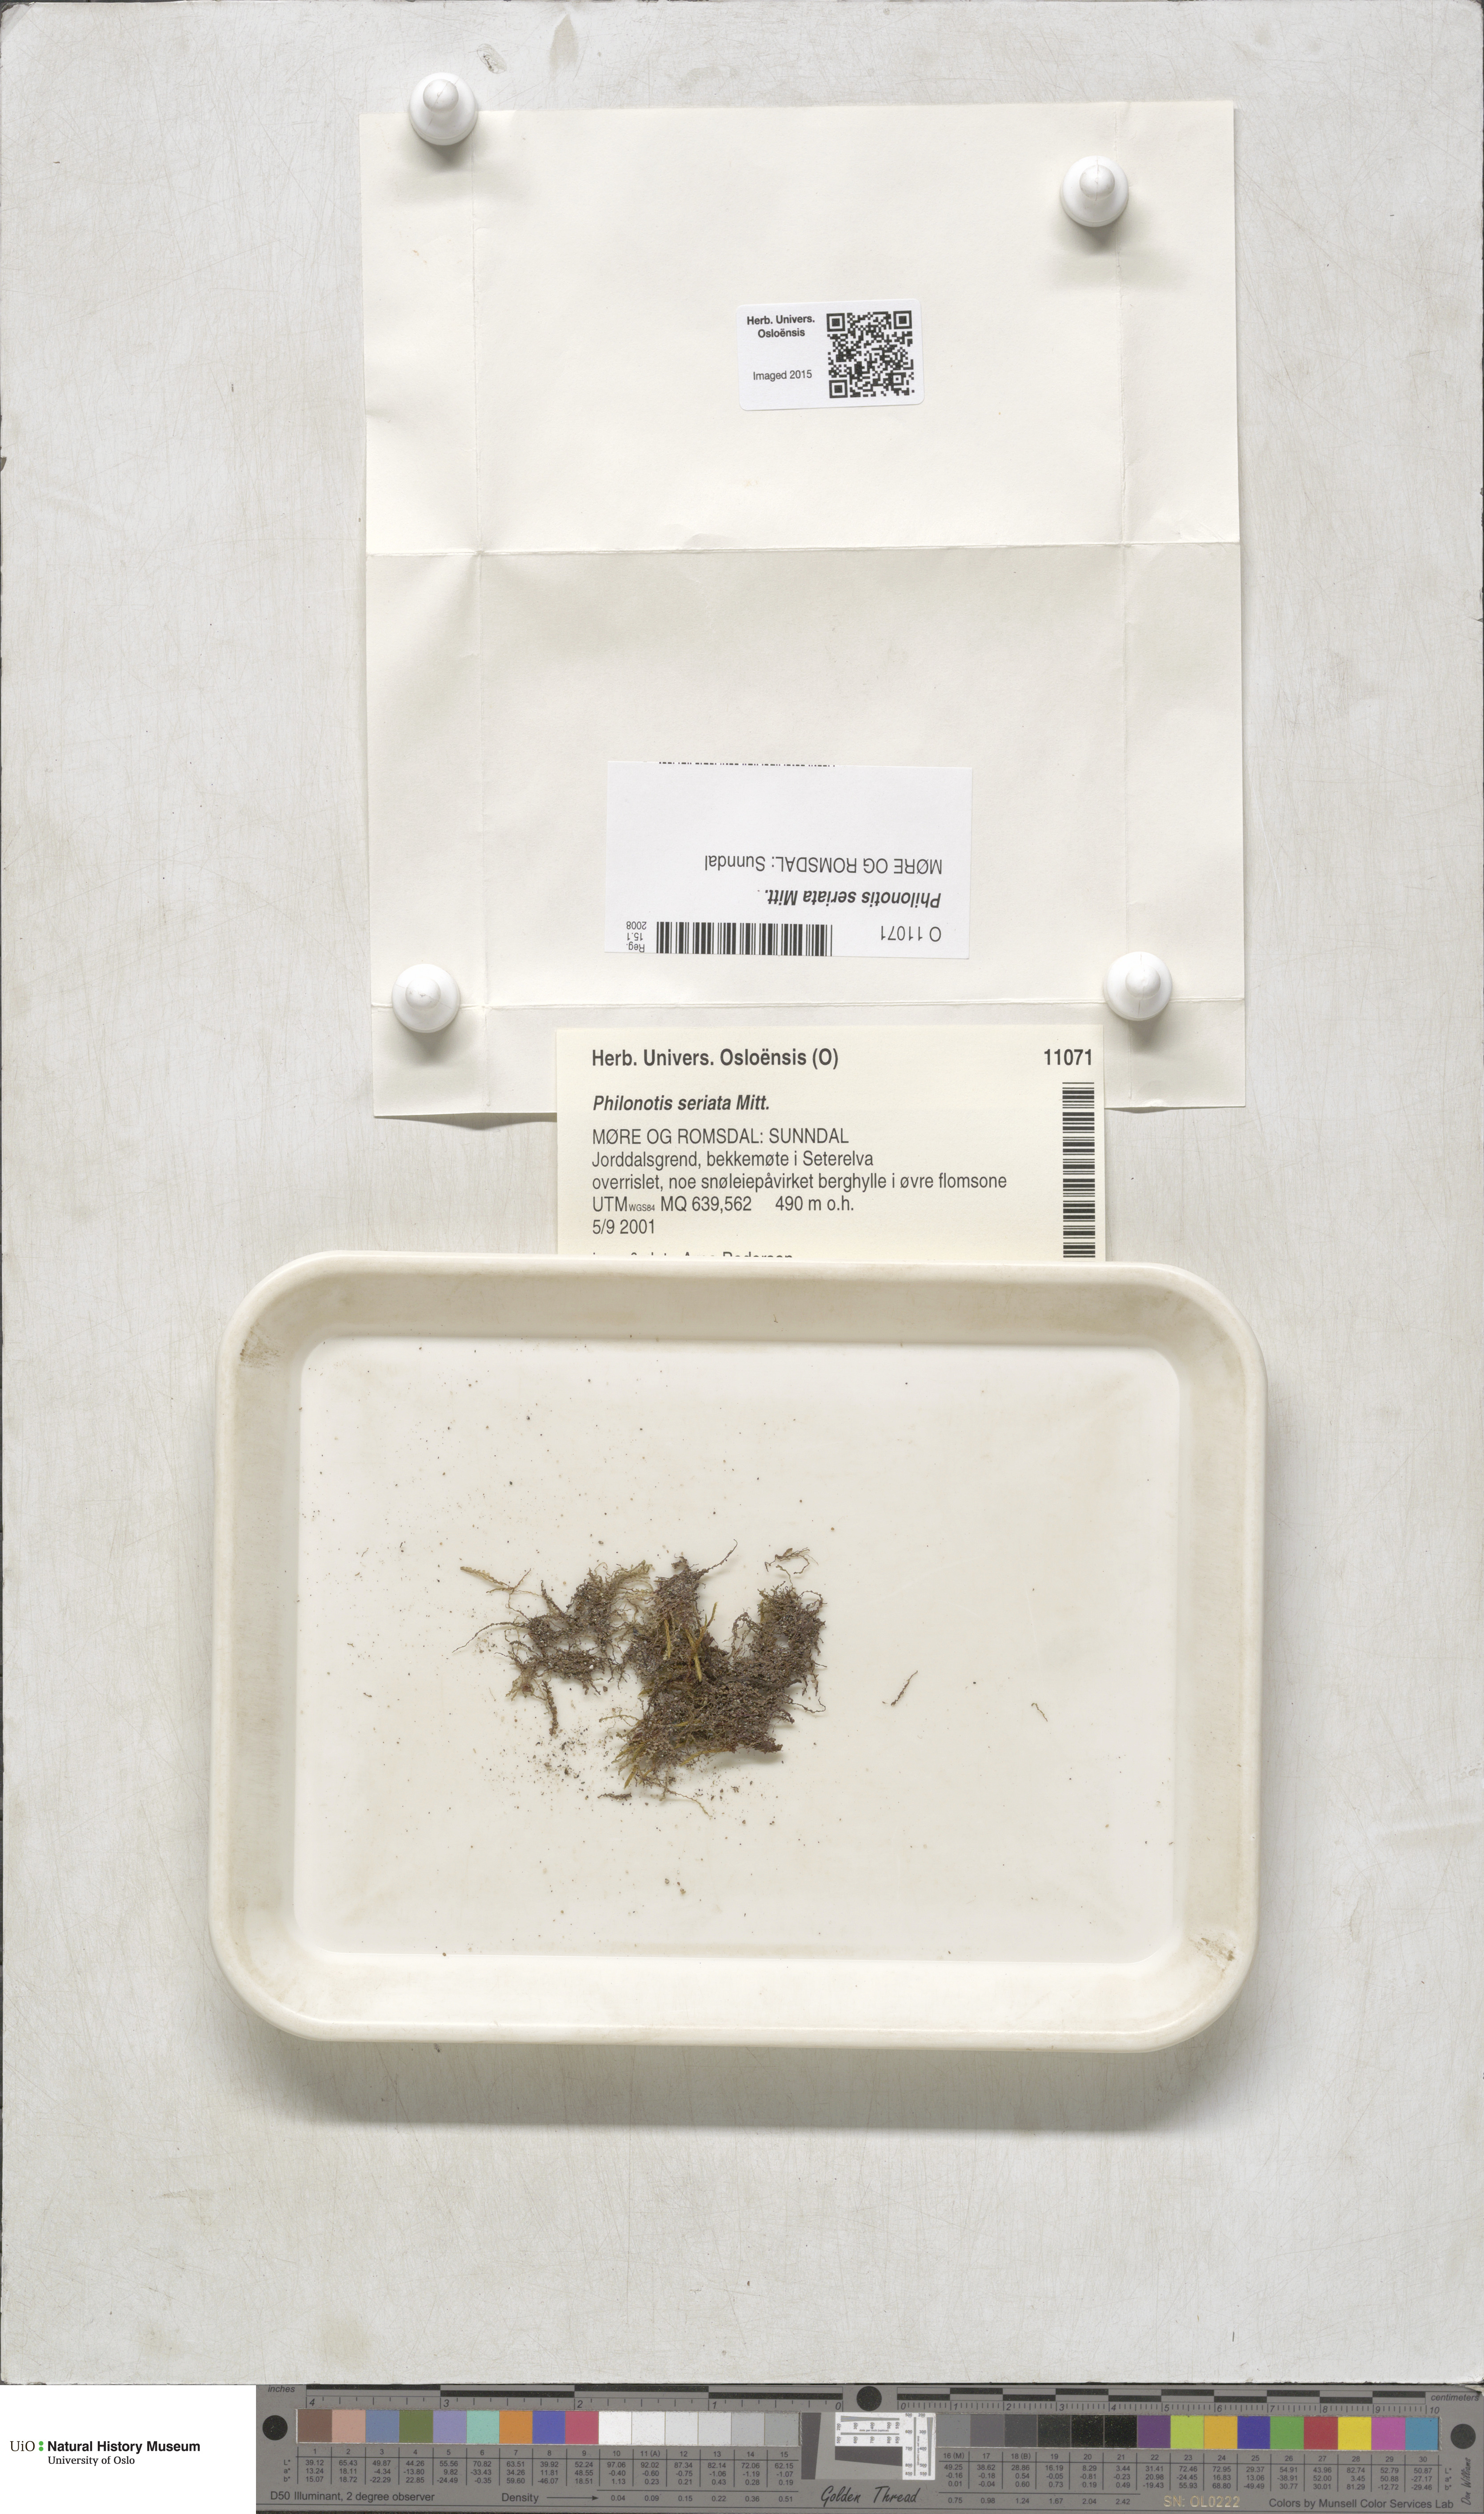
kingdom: Plantae
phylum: Bryophyta
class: Bryopsida
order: Bartramiales
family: Bartramiaceae
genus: Philonotis
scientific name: Philonotis seriata
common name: Spiral apple-moss
